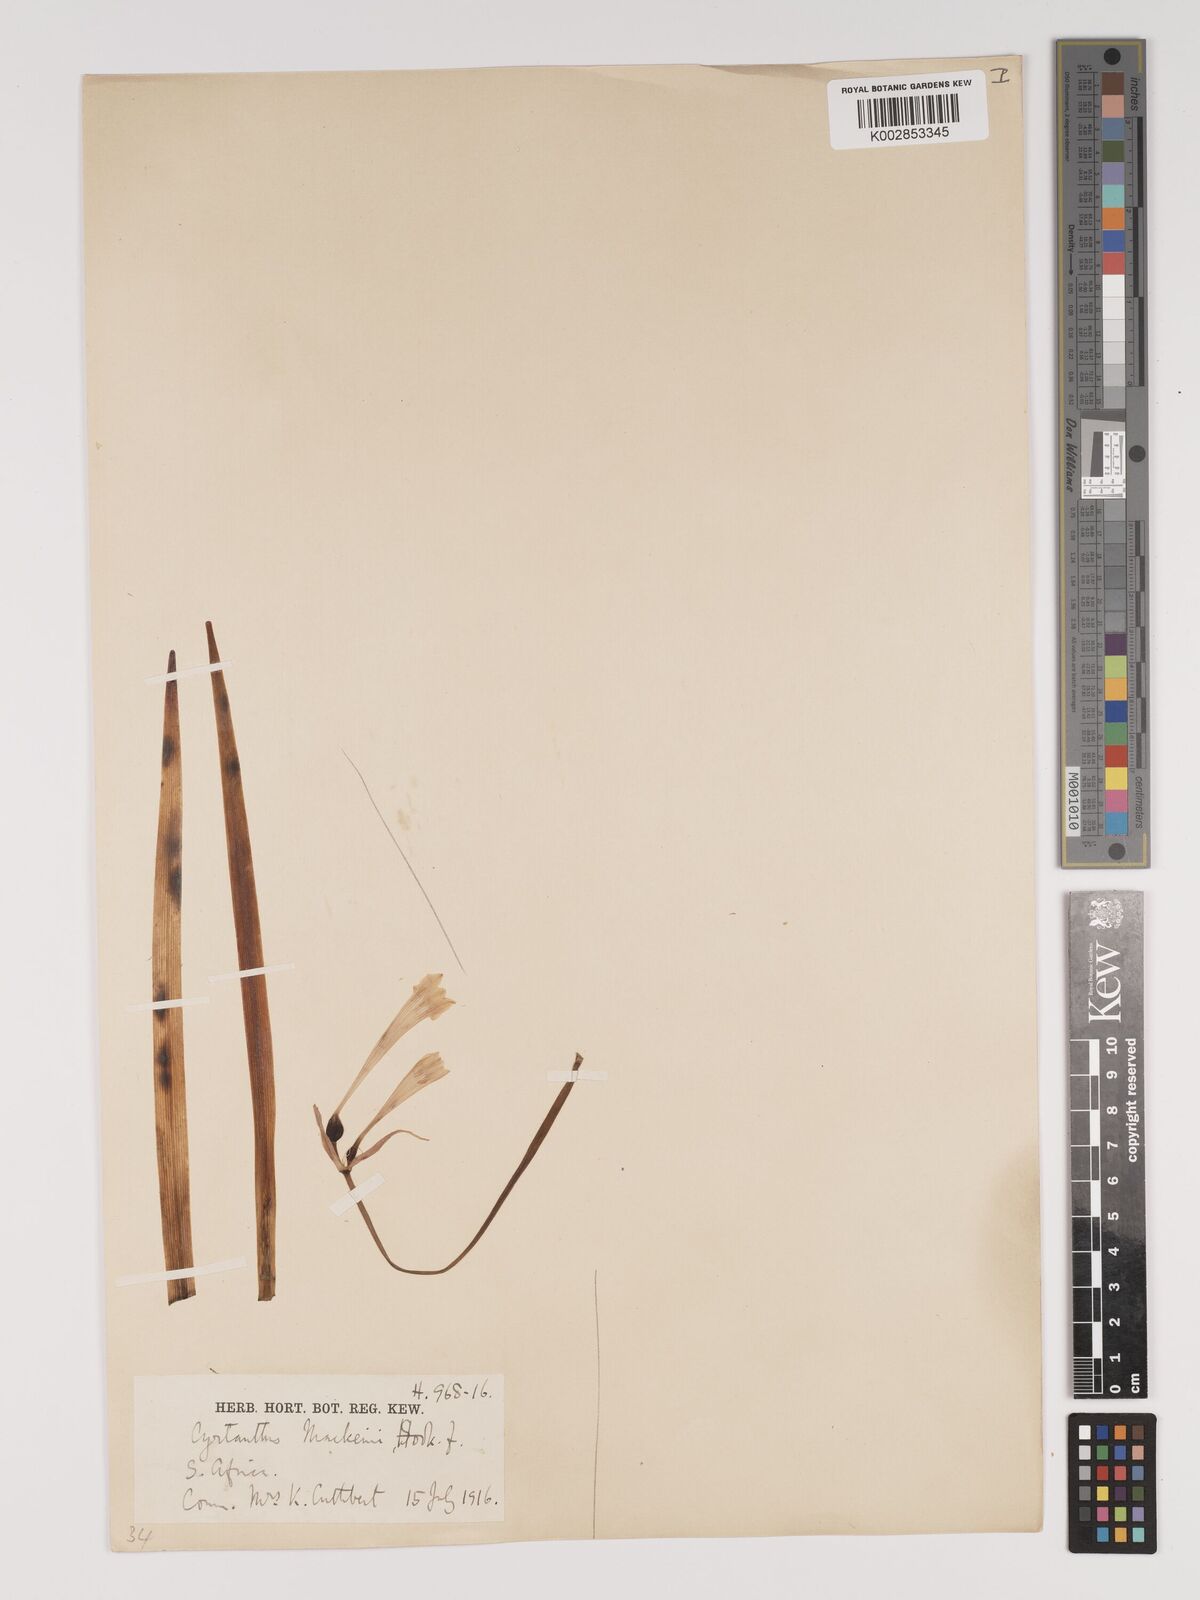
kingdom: Plantae
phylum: Tracheophyta
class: Liliopsida
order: Asparagales
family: Amaryllidaceae
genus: Cyrtanthus
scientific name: Cyrtanthus mackenii
